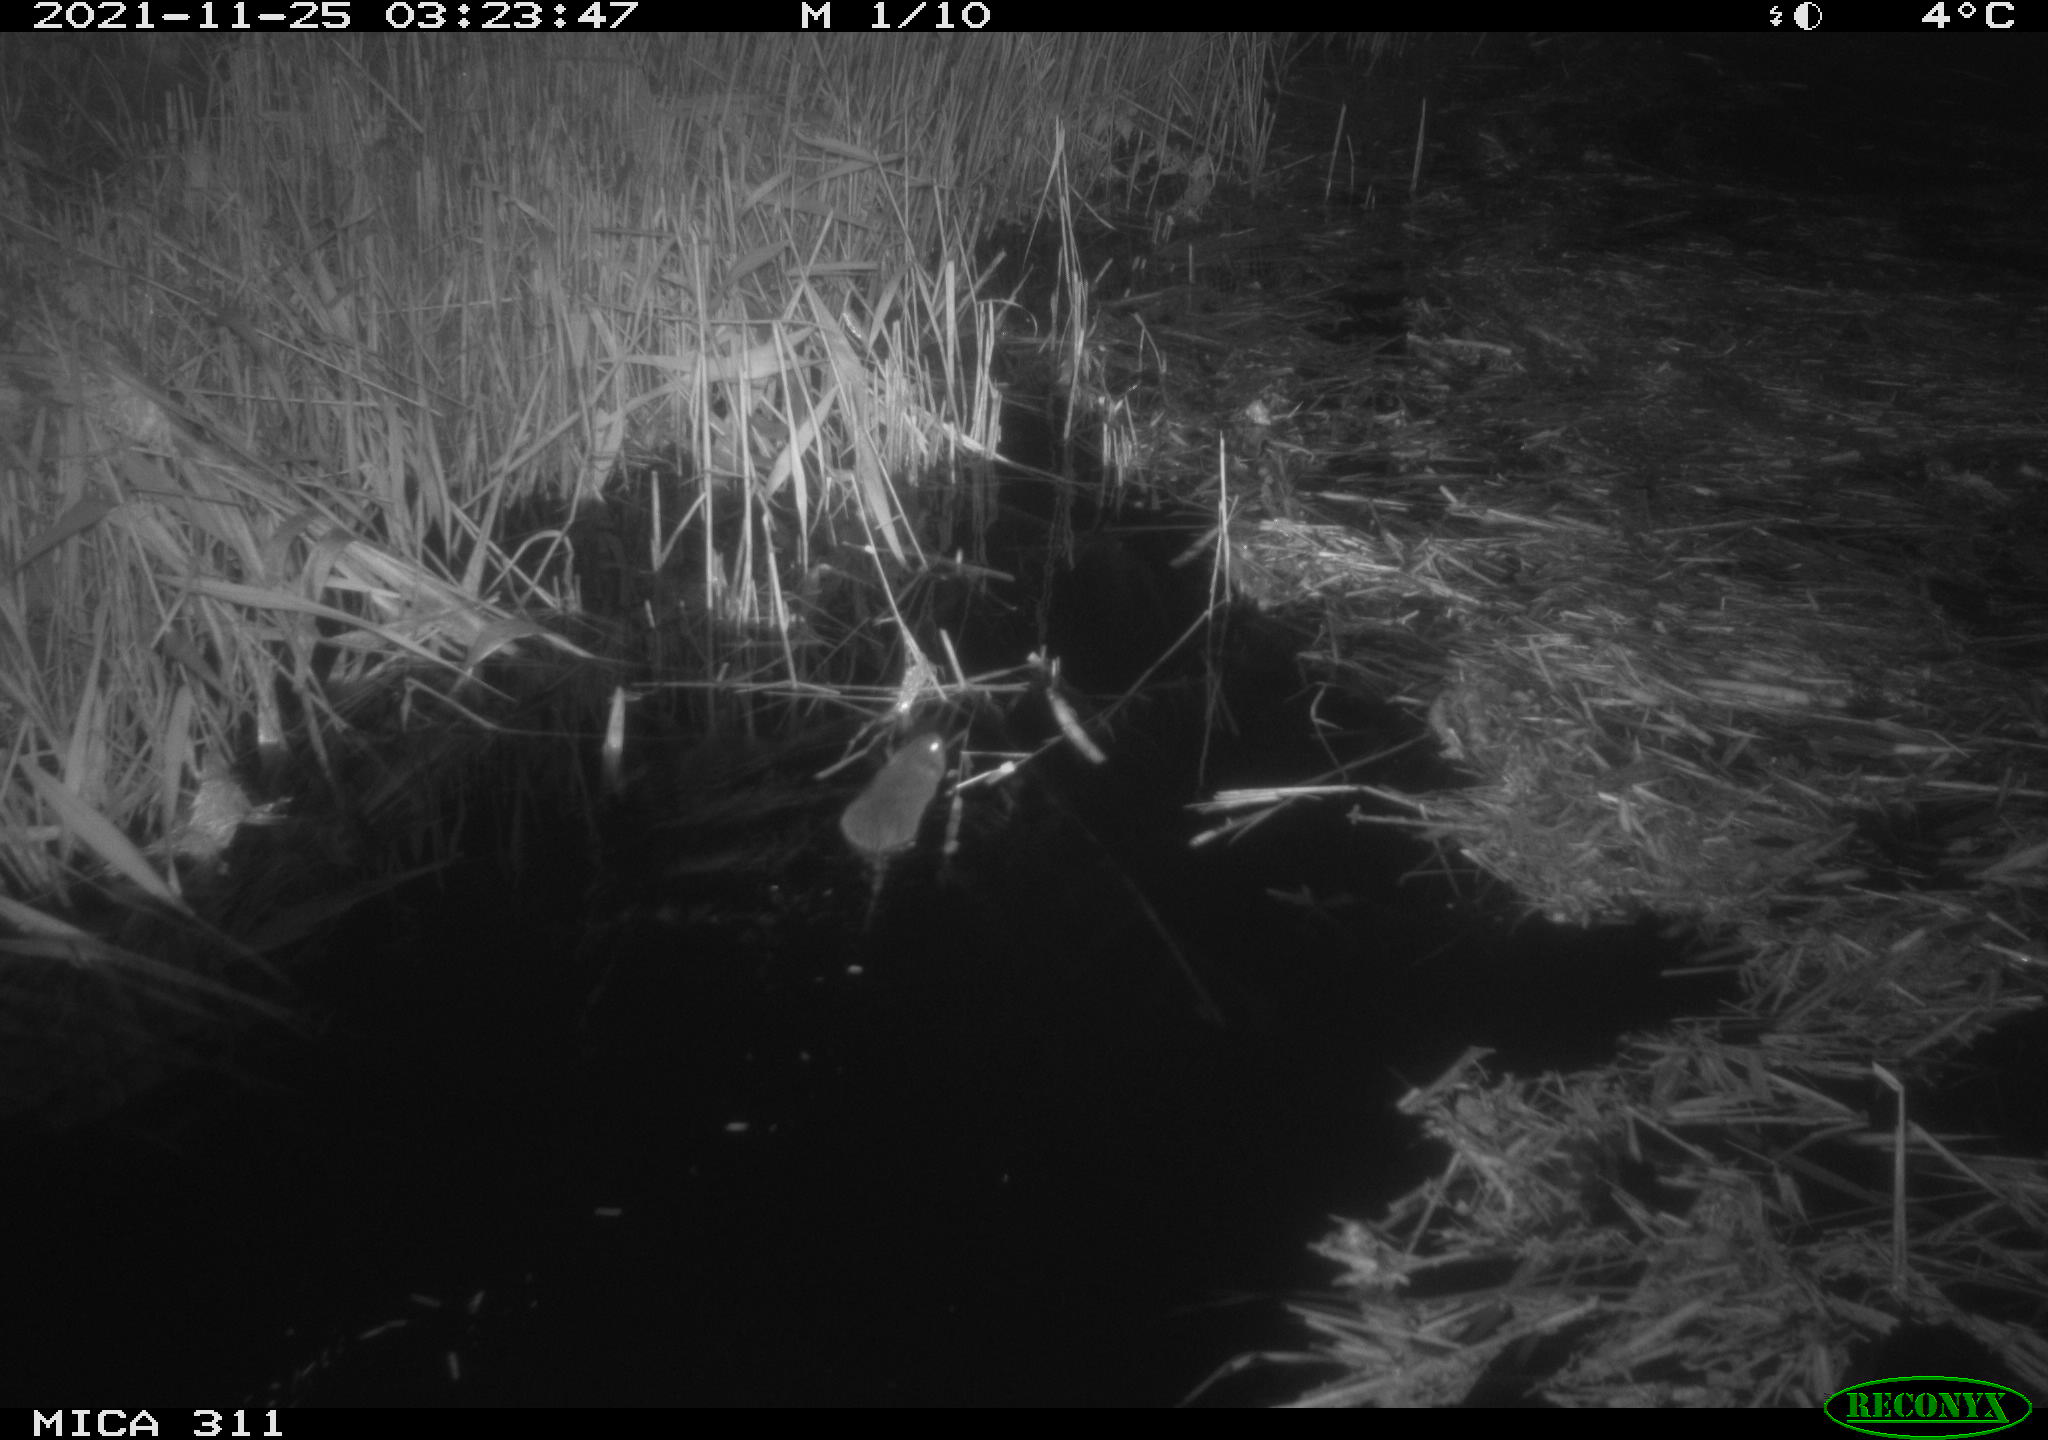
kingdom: Animalia
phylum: Chordata
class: Mammalia
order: Rodentia
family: Muridae
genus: Rattus
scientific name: Rattus norvegicus
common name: Brown rat
